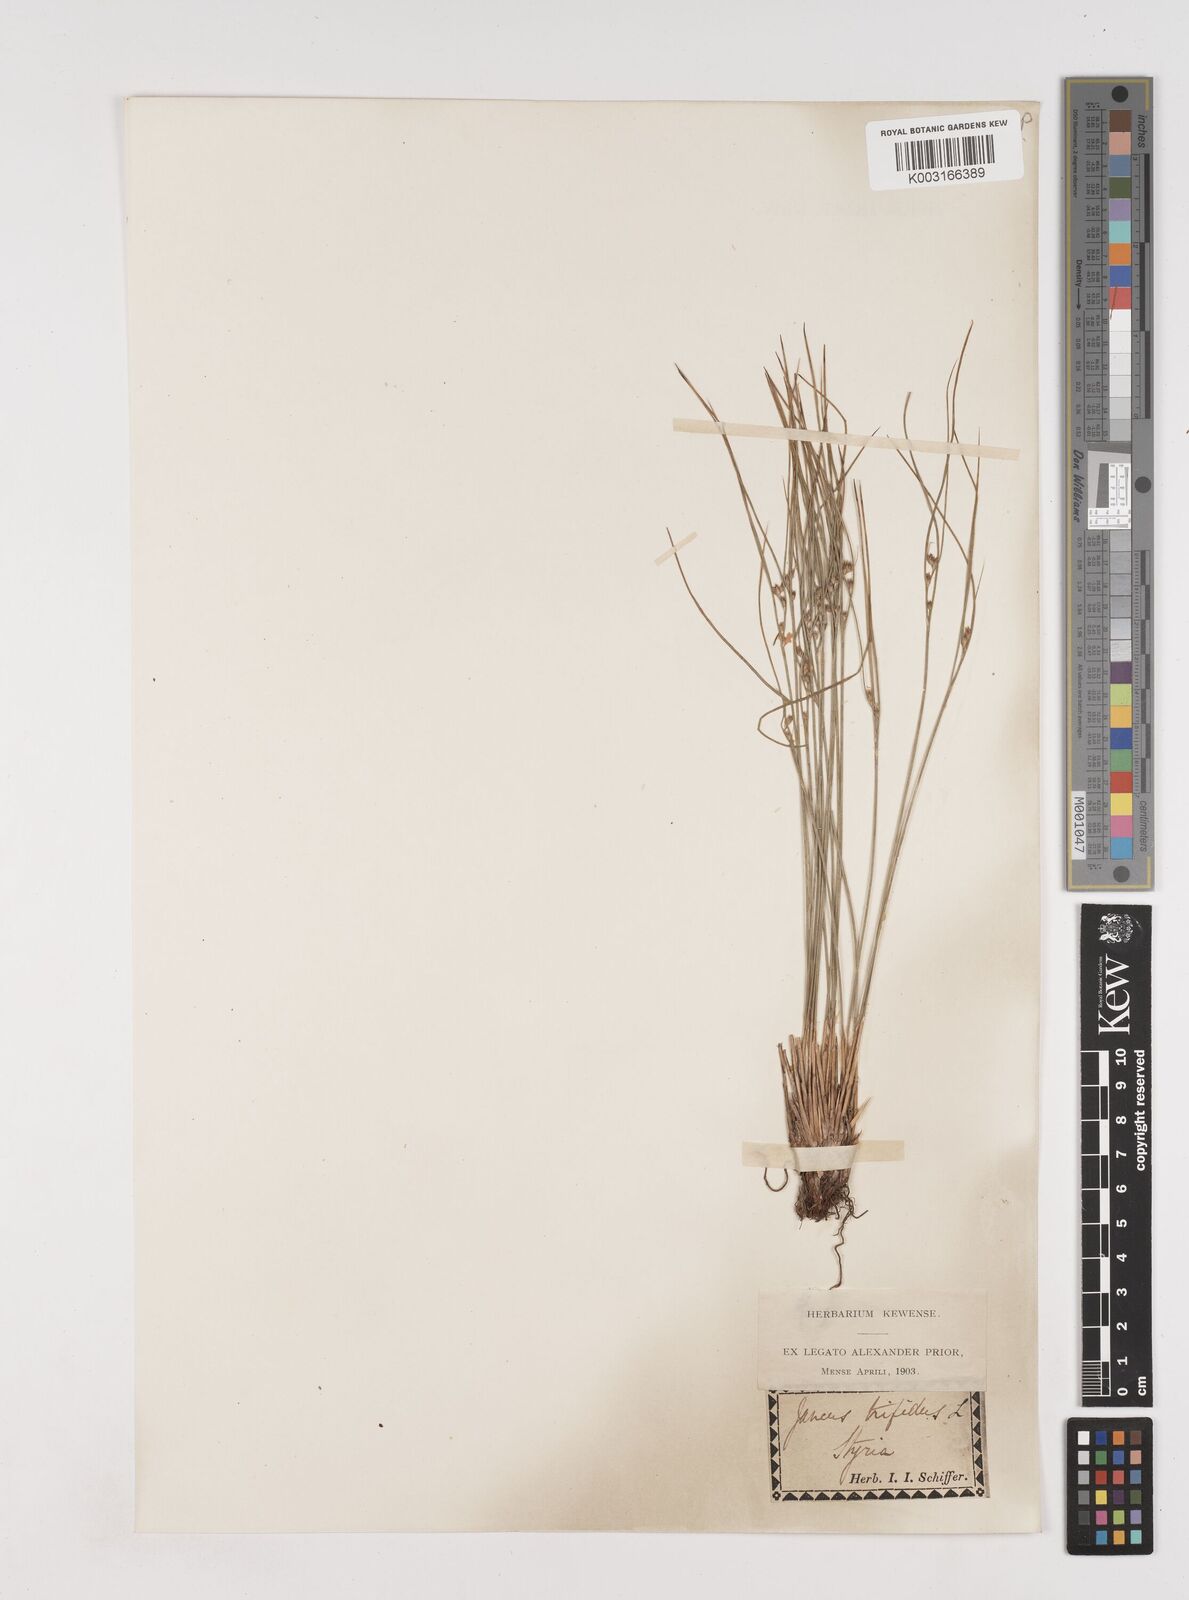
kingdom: Plantae
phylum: Tracheophyta
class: Liliopsida
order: Poales
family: Juncaceae
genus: Oreojuncus
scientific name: Oreojuncus trifidus
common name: Highland rush
